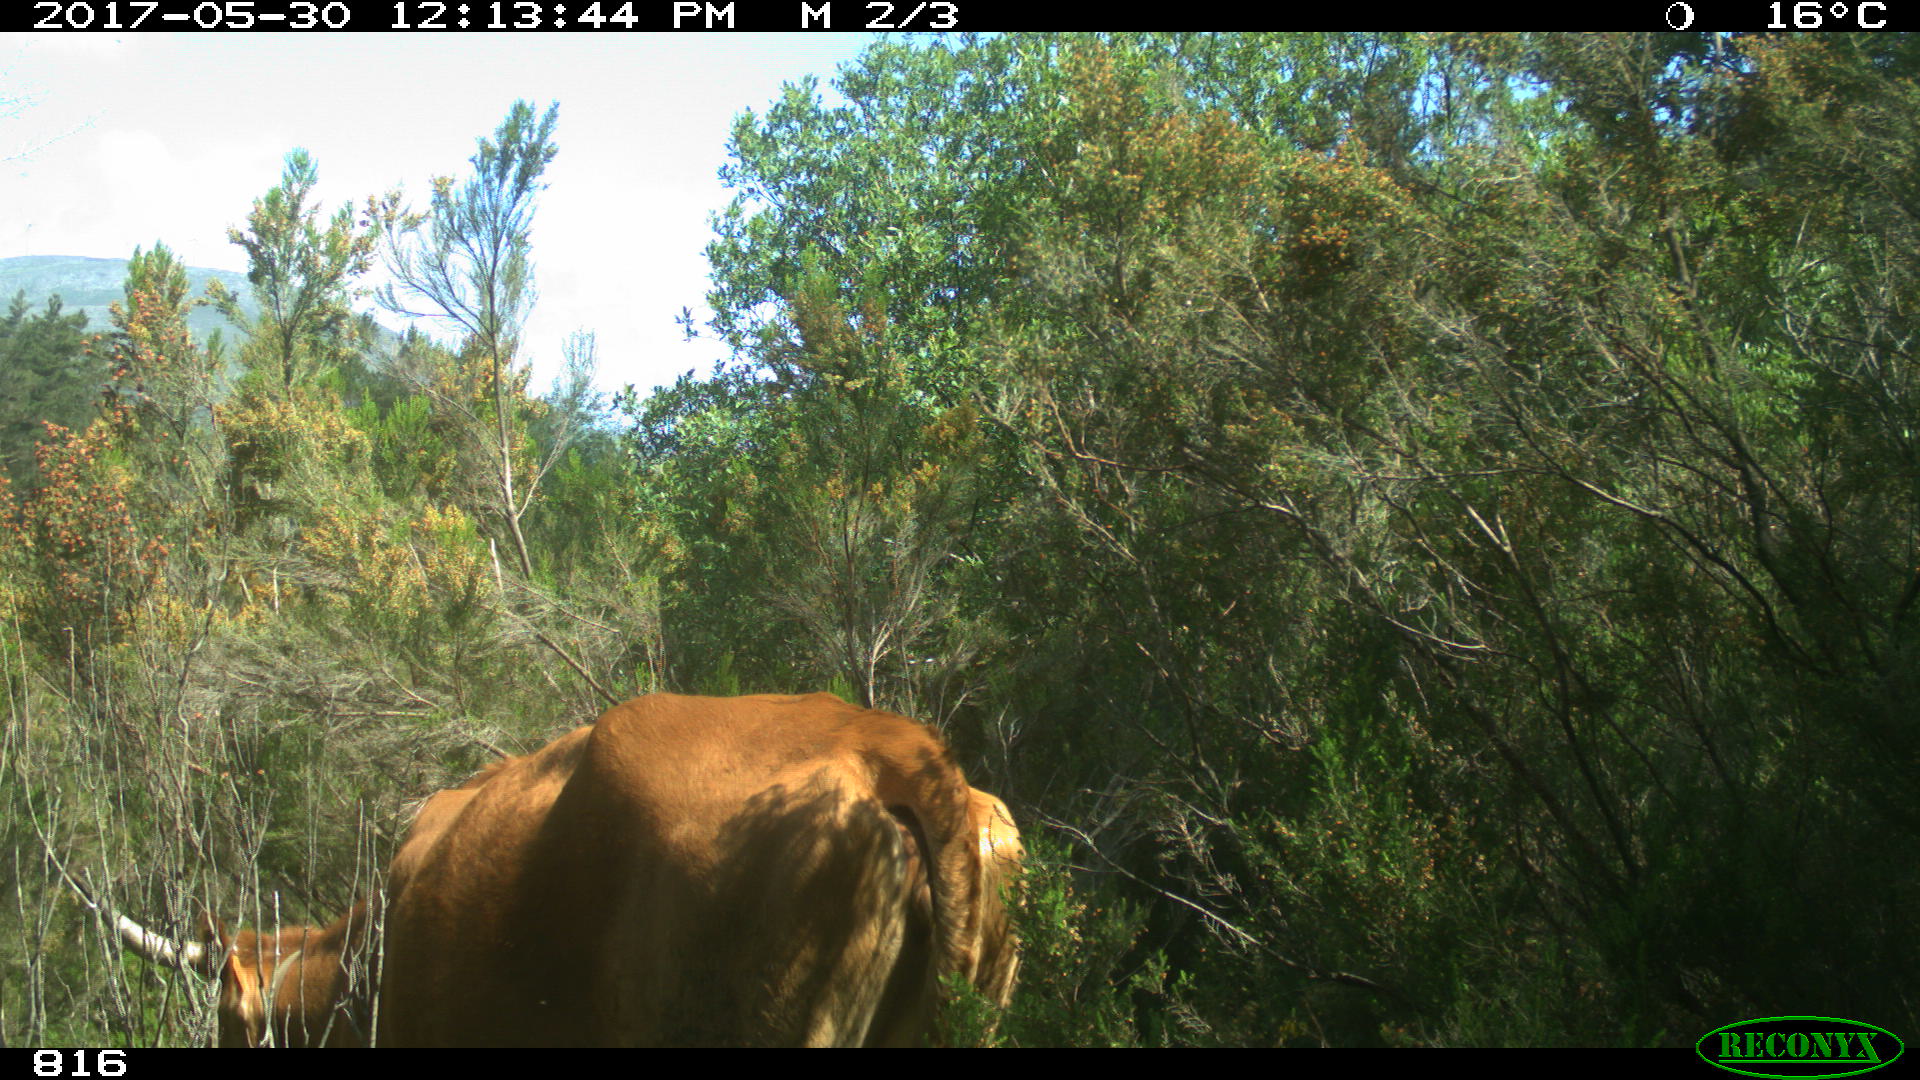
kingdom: Animalia
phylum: Chordata
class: Mammalia
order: Artiodactyla
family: Bovidae
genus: Bos
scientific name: Bos taurus
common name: Domesticated cattle
